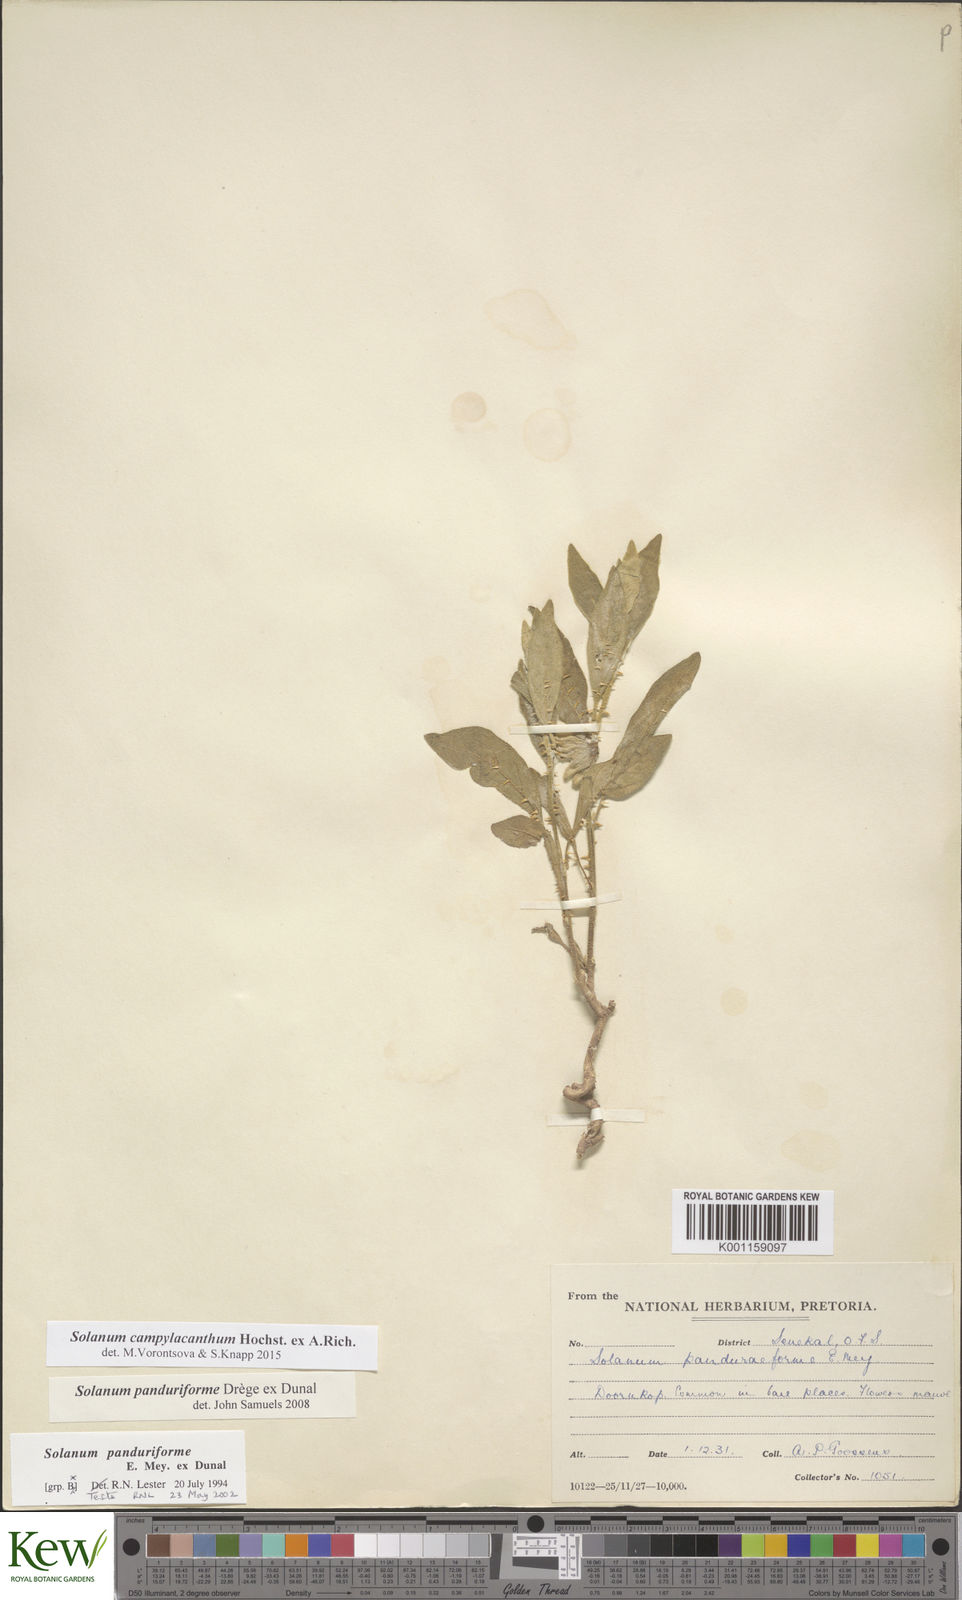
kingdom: Plantae
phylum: Tracheophyta
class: Magnoliopsida
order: Solanales
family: Solanaceae
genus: Solanum
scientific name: Solanum campylacanthum
